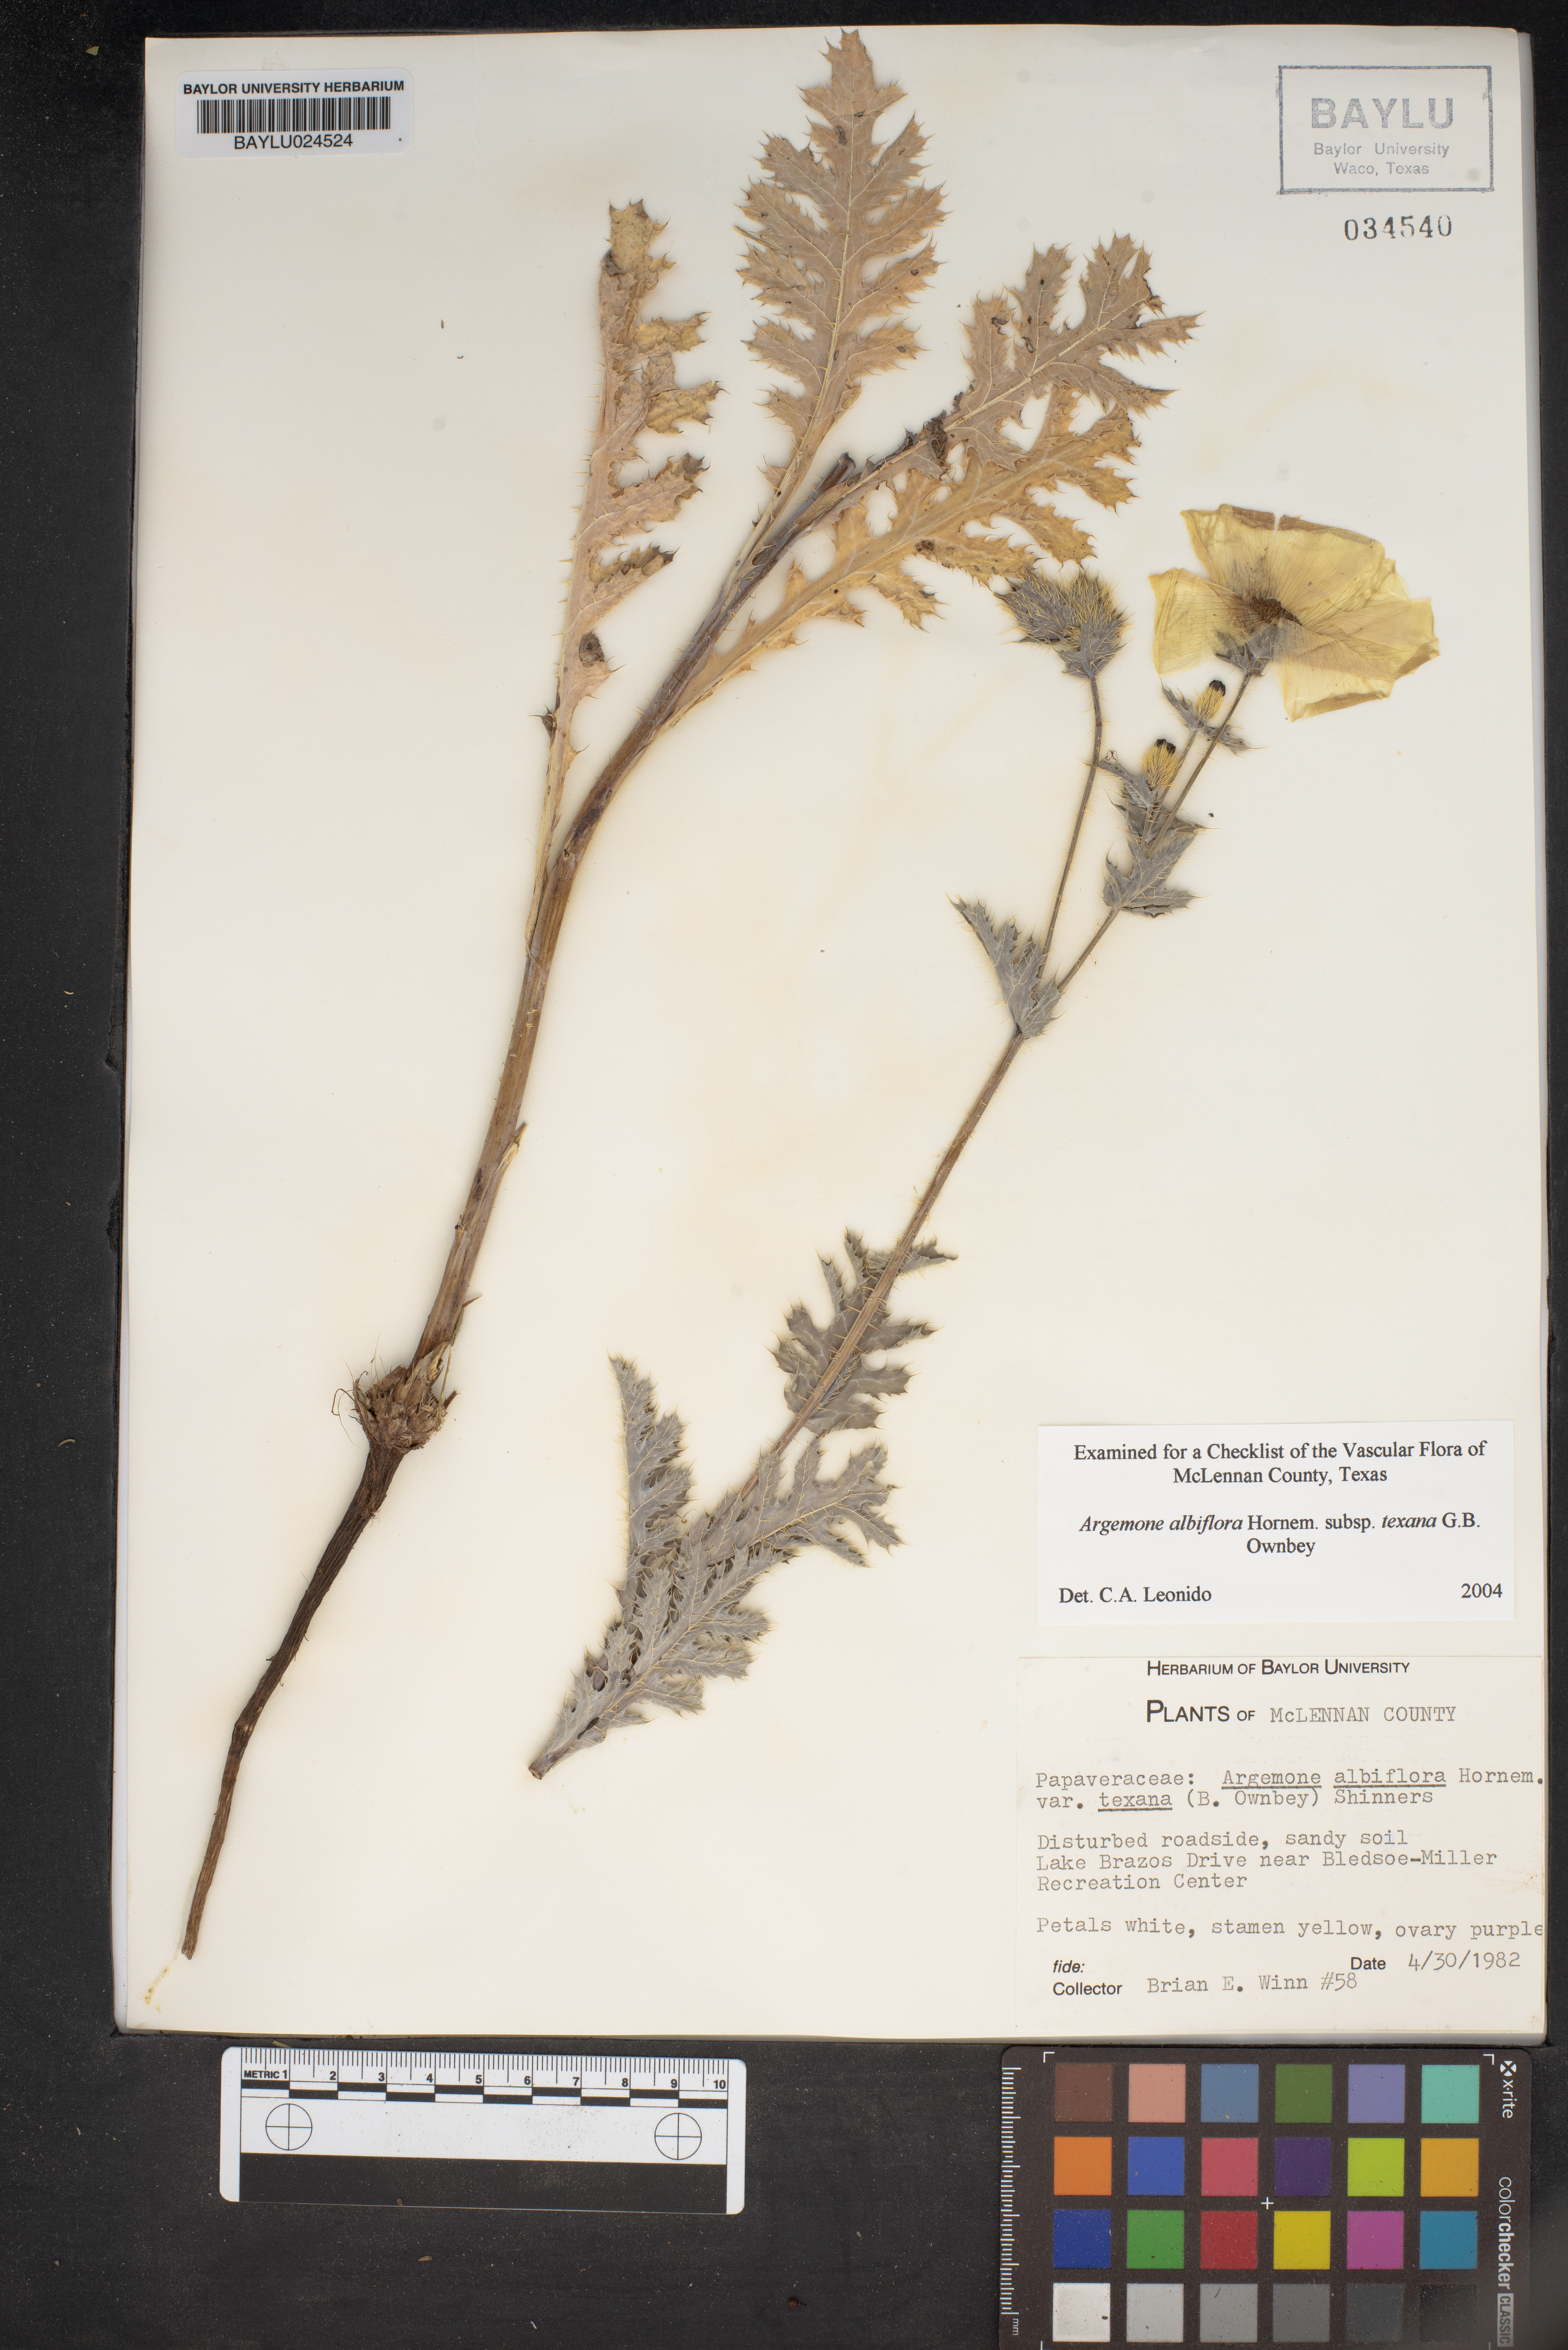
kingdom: Plantae
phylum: Tracheophyta
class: Magnoliopsida
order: Ranunculales
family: Papaveraceae
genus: Argemone
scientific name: Argemone albiflora
